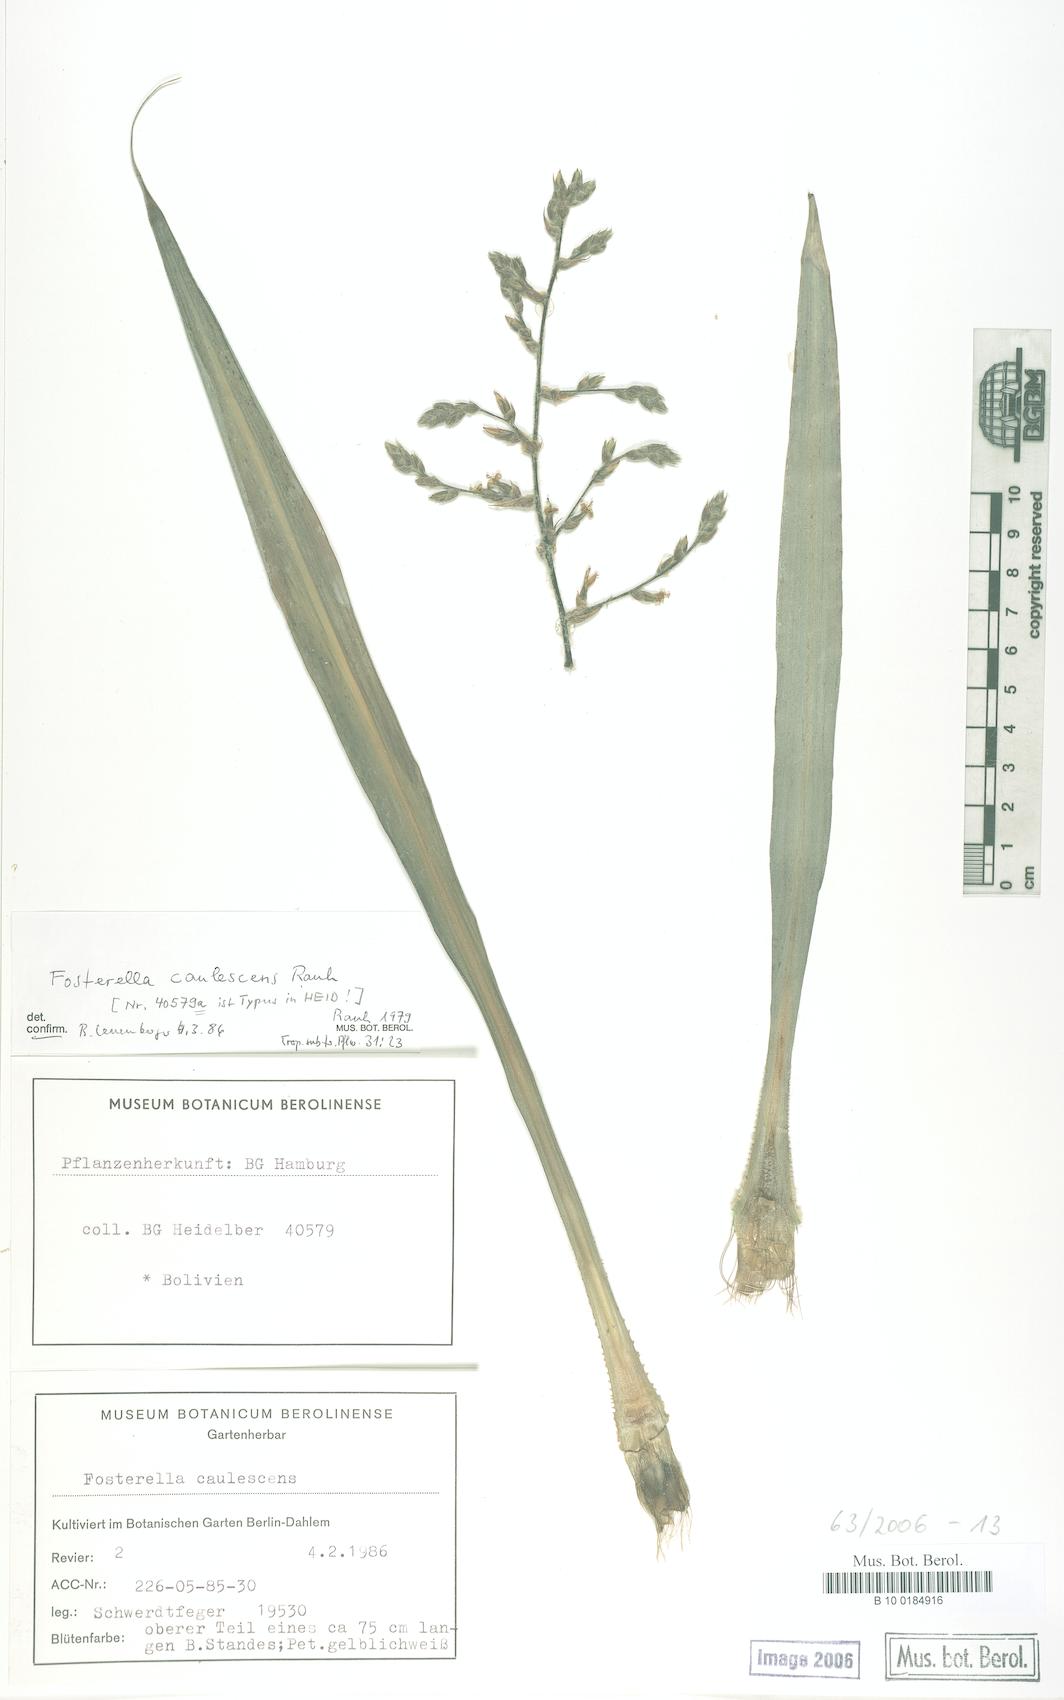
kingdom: Plantae
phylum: Tracheophyta
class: Liliopsida
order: Poales
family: Bromeliaceae
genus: Fosterella
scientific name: Fosterella caulescens
